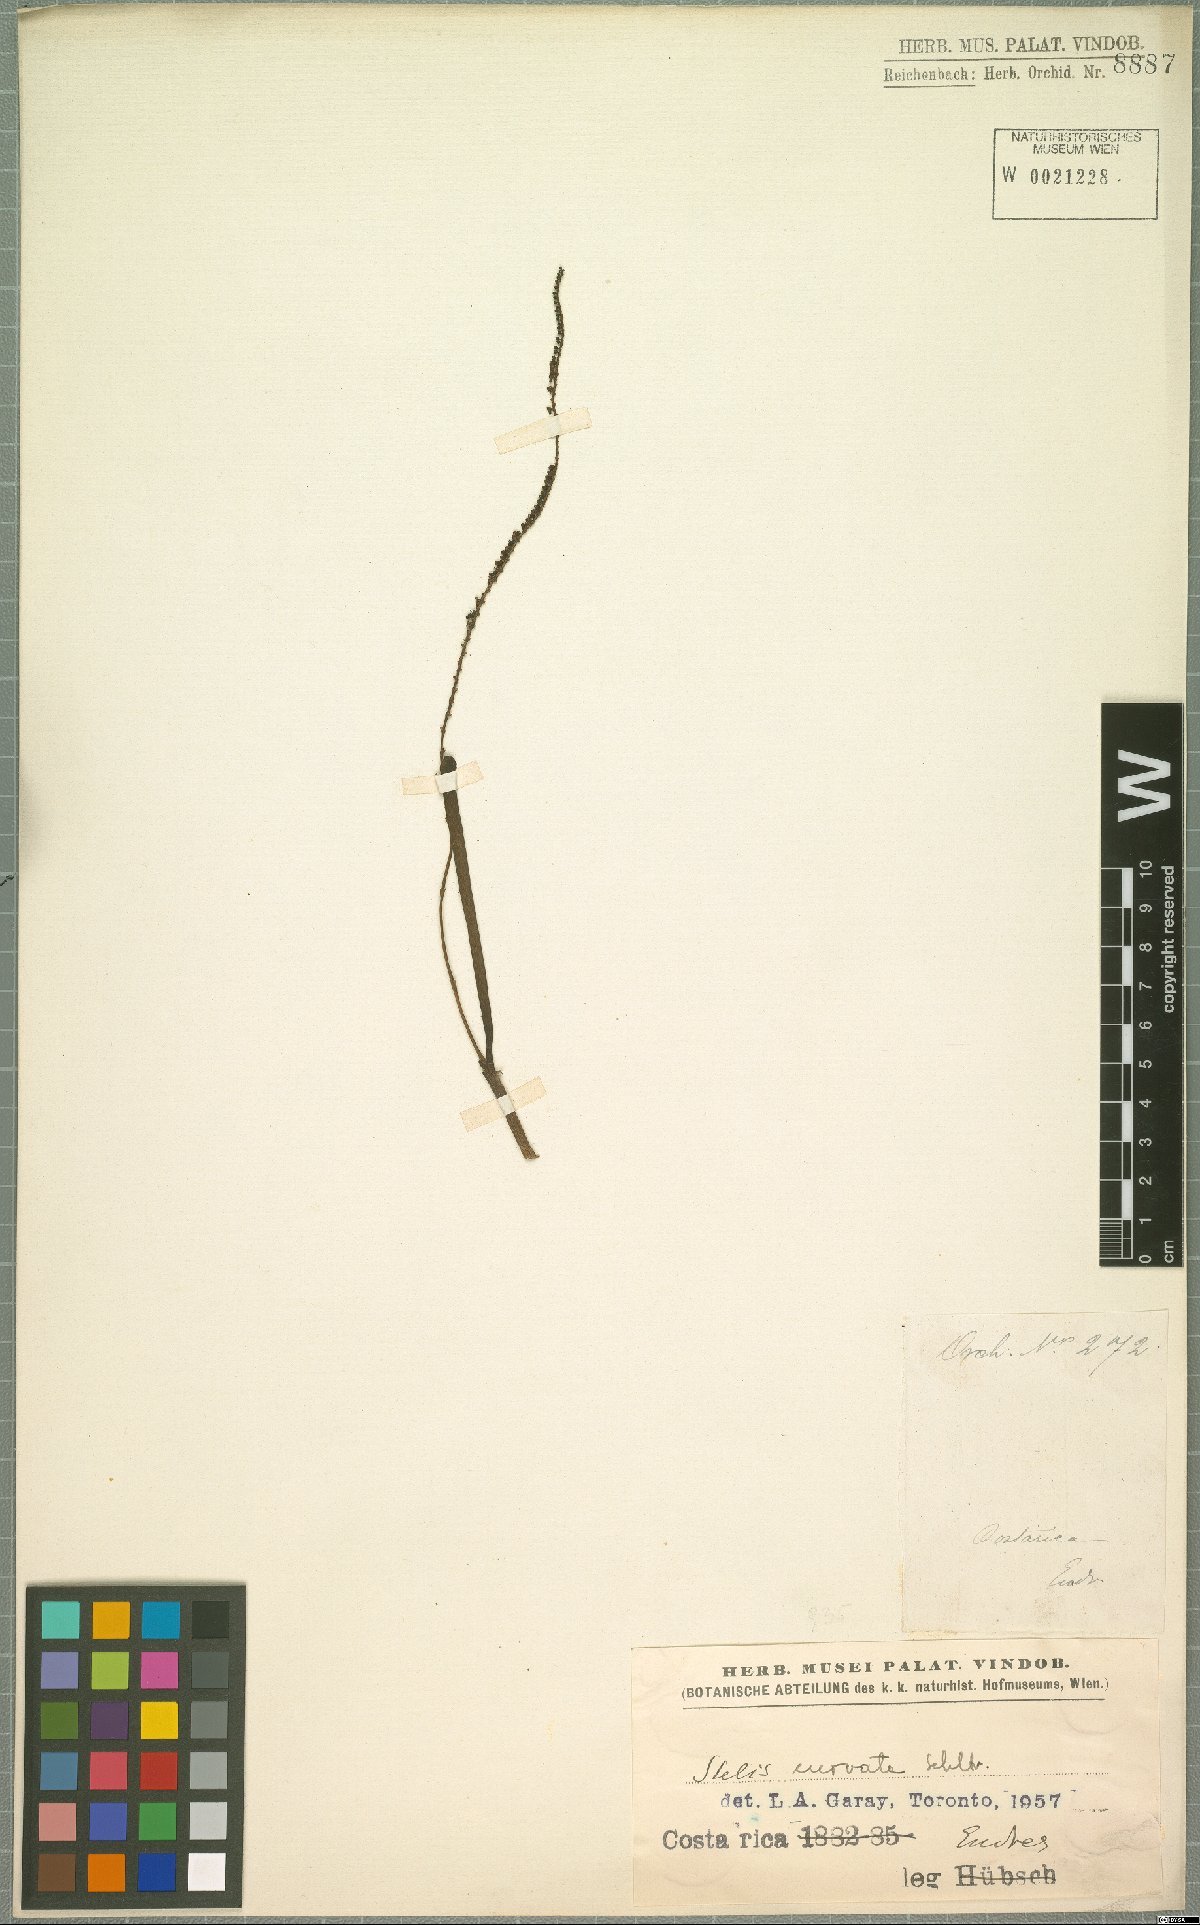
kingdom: Plantae
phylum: Tracheophyta
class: Liliopsida
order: Asparagales
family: Orchidaceae
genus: Stelis
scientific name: Stelis purpurascens
